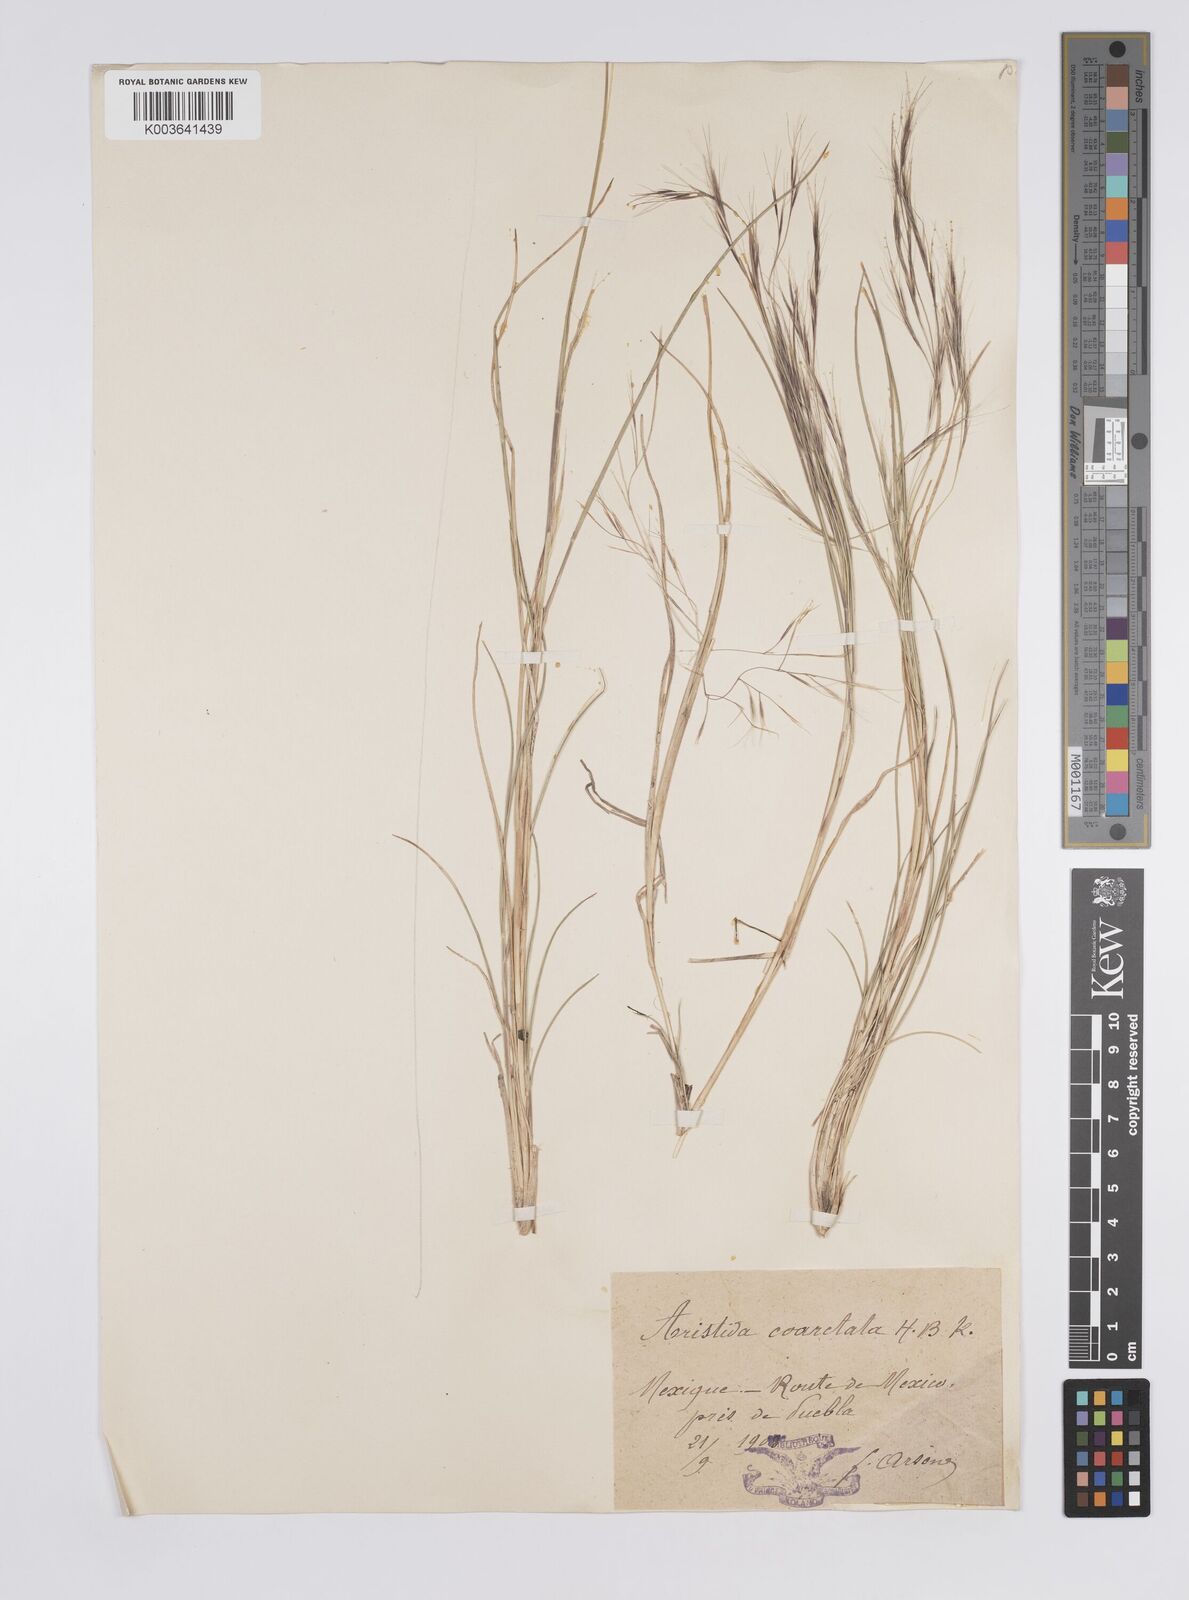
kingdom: Plantae
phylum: Tracheophyta
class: Liliopsida
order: Poales
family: Poaceae
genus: Aristida
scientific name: Aristida adscensionis
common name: Sixweeks threeawn
